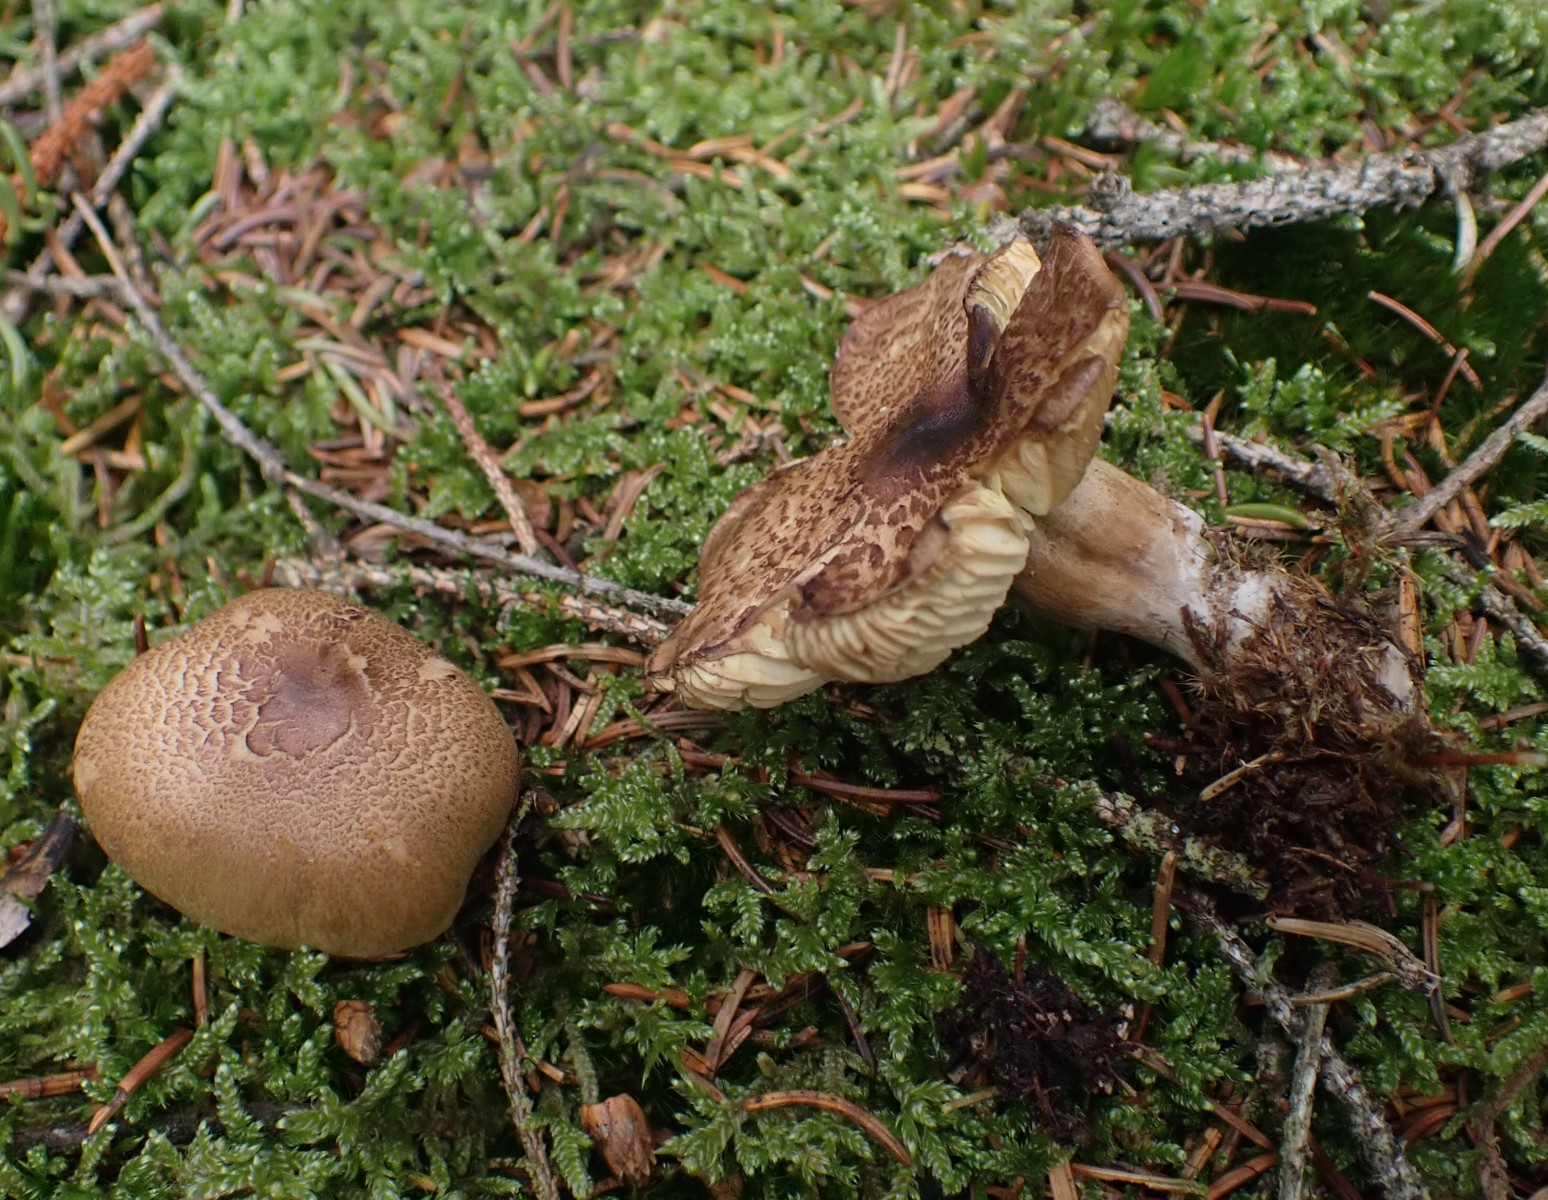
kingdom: Fungi
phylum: Basidiomycota
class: Agaricomycetes
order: Agaricales
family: Tricholomataceae
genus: Tricholoma
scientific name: Tricholoma aestuans
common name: kegle-ridderhat
